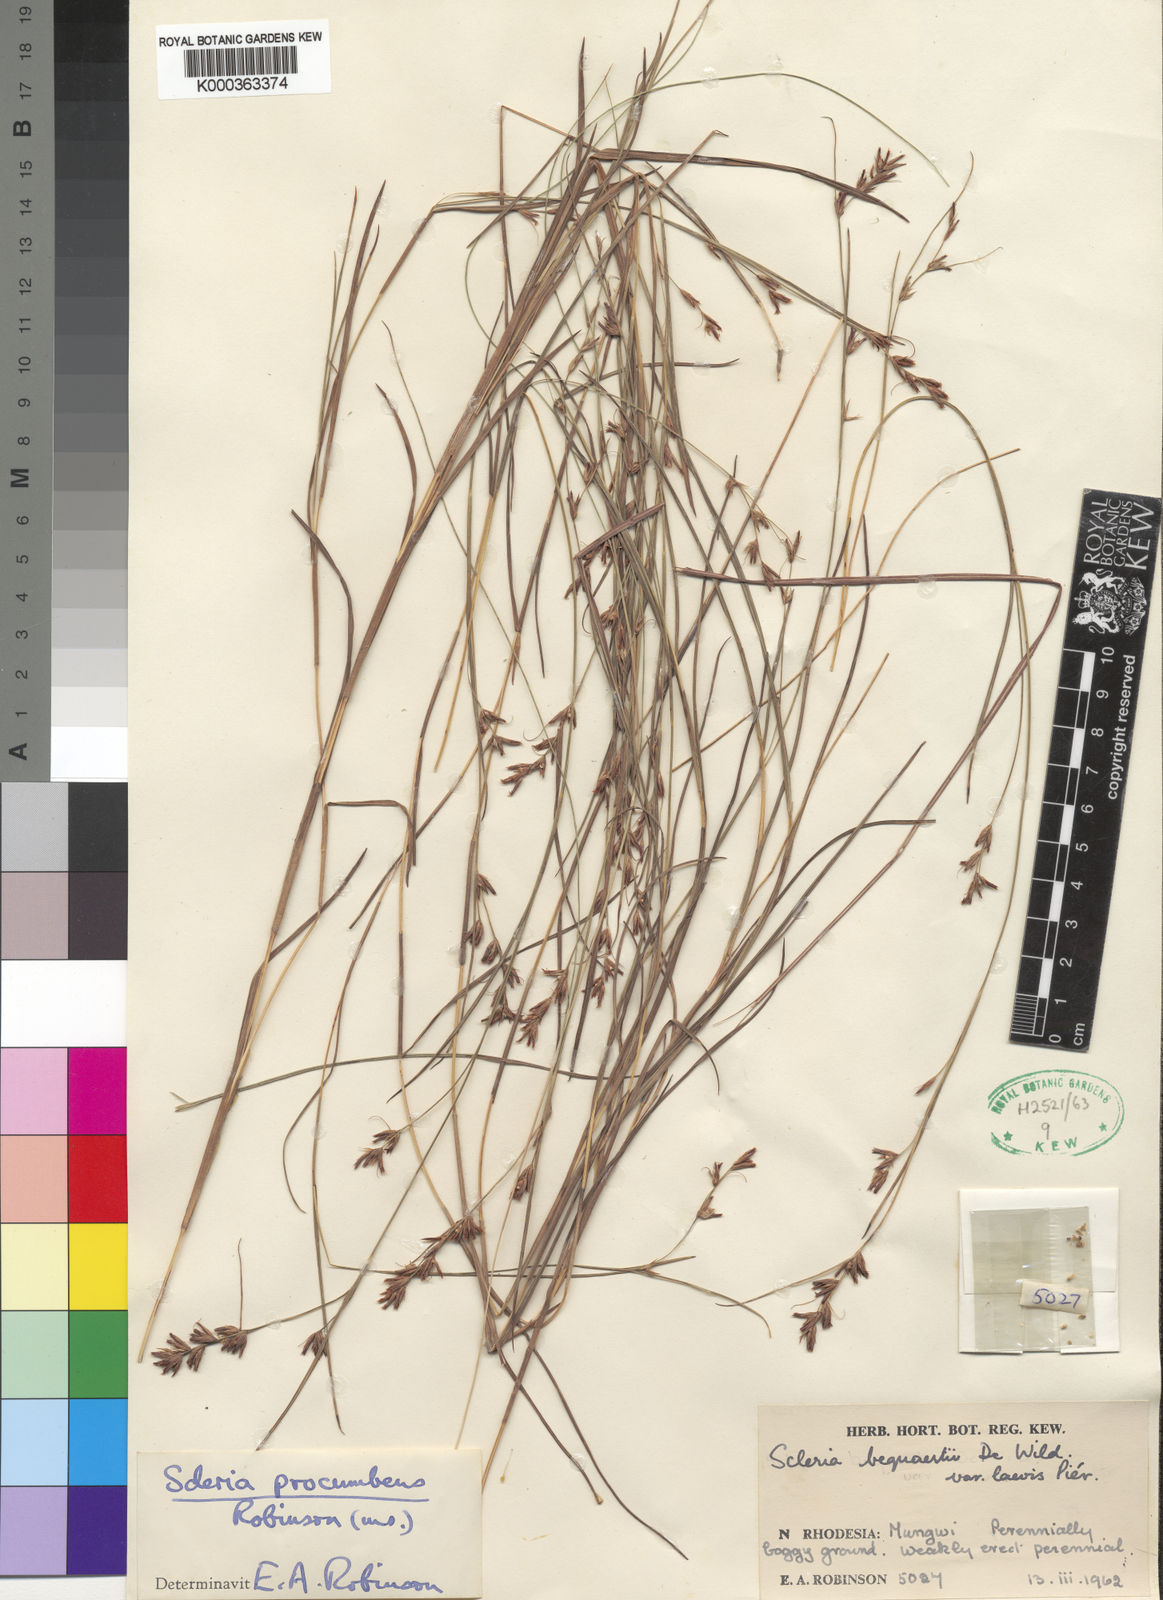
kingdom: Plantae
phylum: Tracheophyta
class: Liliopsida
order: Poales
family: Cyperaceae
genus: Scleria
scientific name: Scleria procumbens
